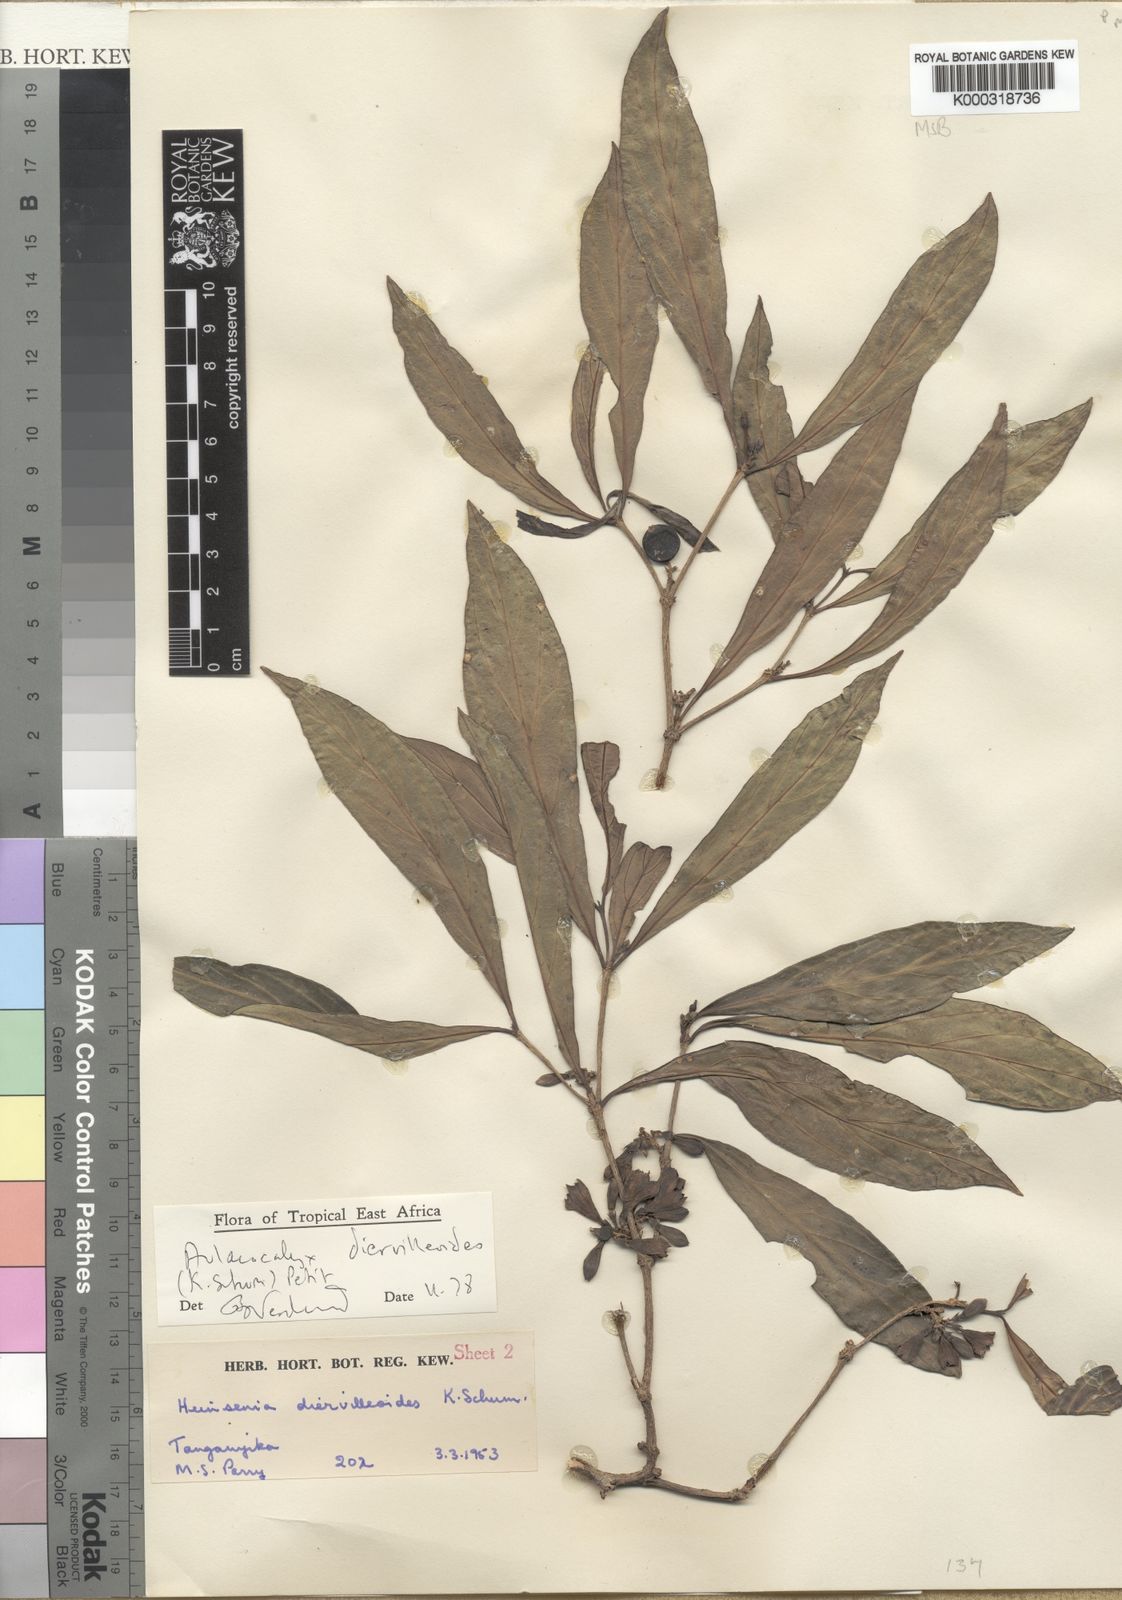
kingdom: Plantae
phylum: Tracheophyta
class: Magnoliopsida
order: Gentianales
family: Rubiaceae
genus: Heinsenia
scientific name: Heinsenia diervilleoides
